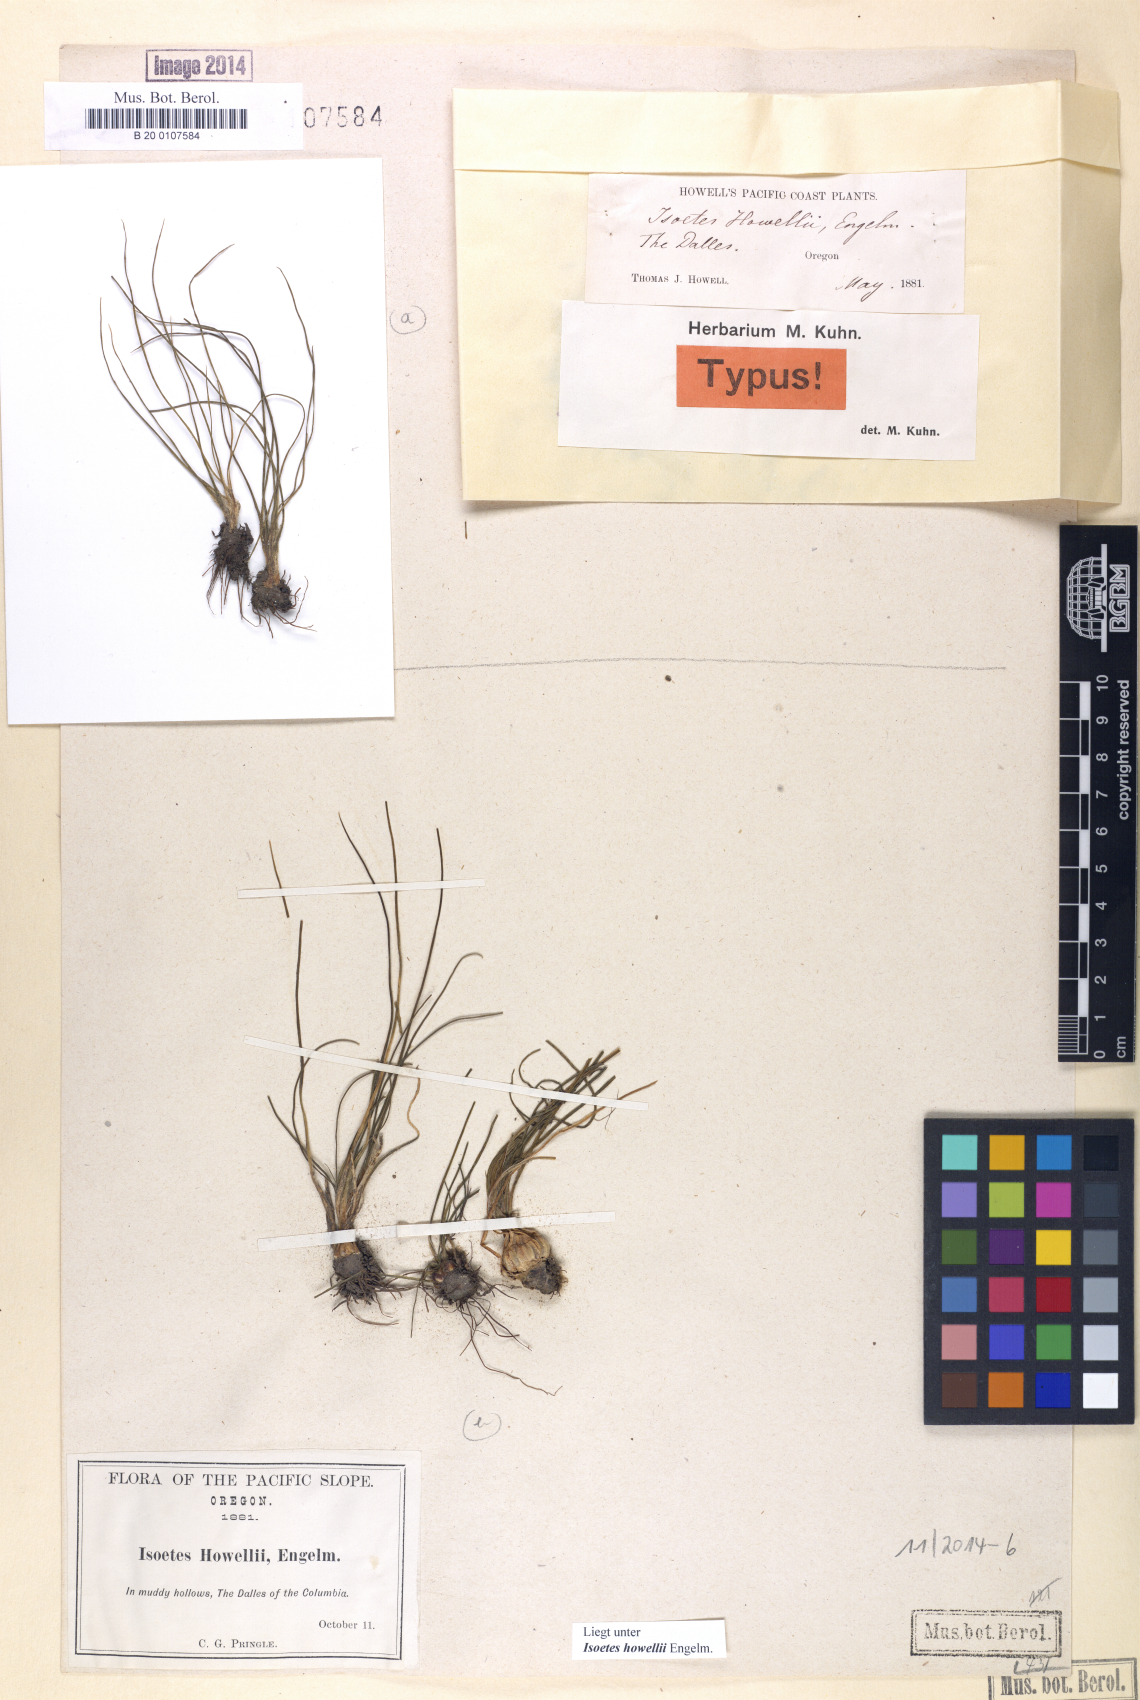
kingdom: Plantae
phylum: Tracheophyta
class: Lycopodiopsida
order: Isoetales
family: Isoetaceae
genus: Isoetes
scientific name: Isoetes howellii
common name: Howell's quillwort
